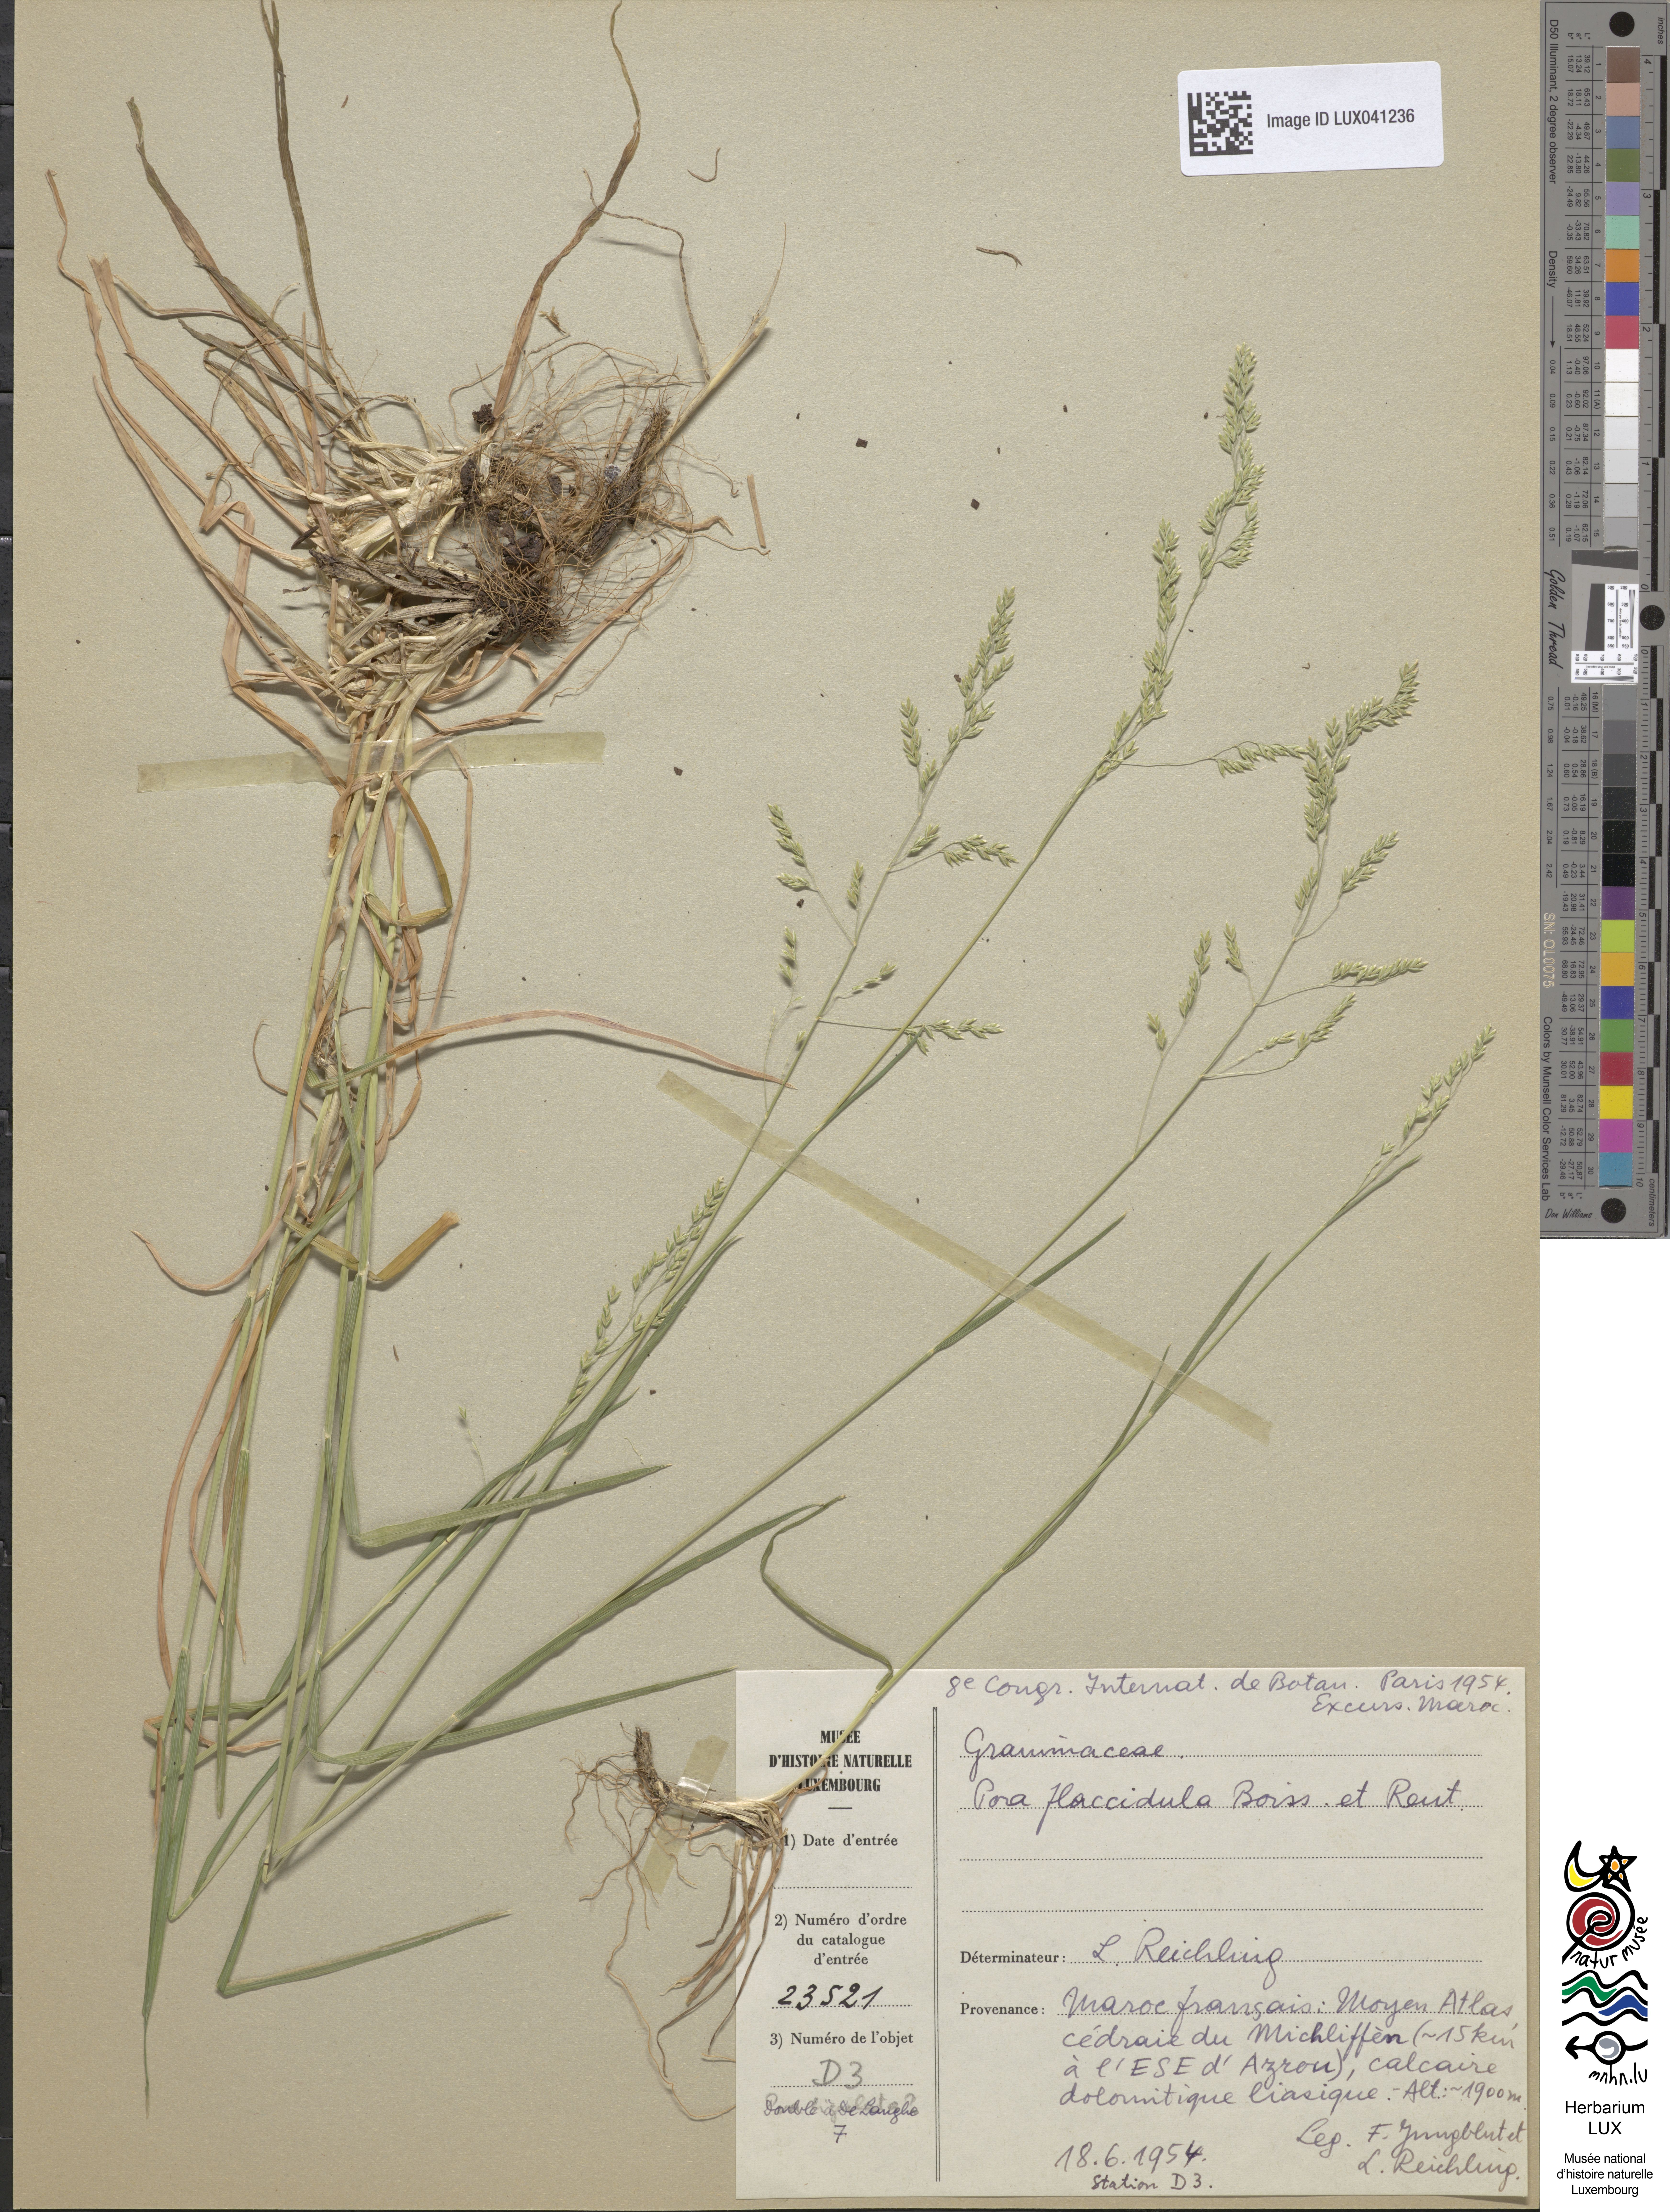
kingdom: Plantae
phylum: Tracheophyta
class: Liliopsida
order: Poales
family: Poaceae
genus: Poa
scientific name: Poa flaccidula
